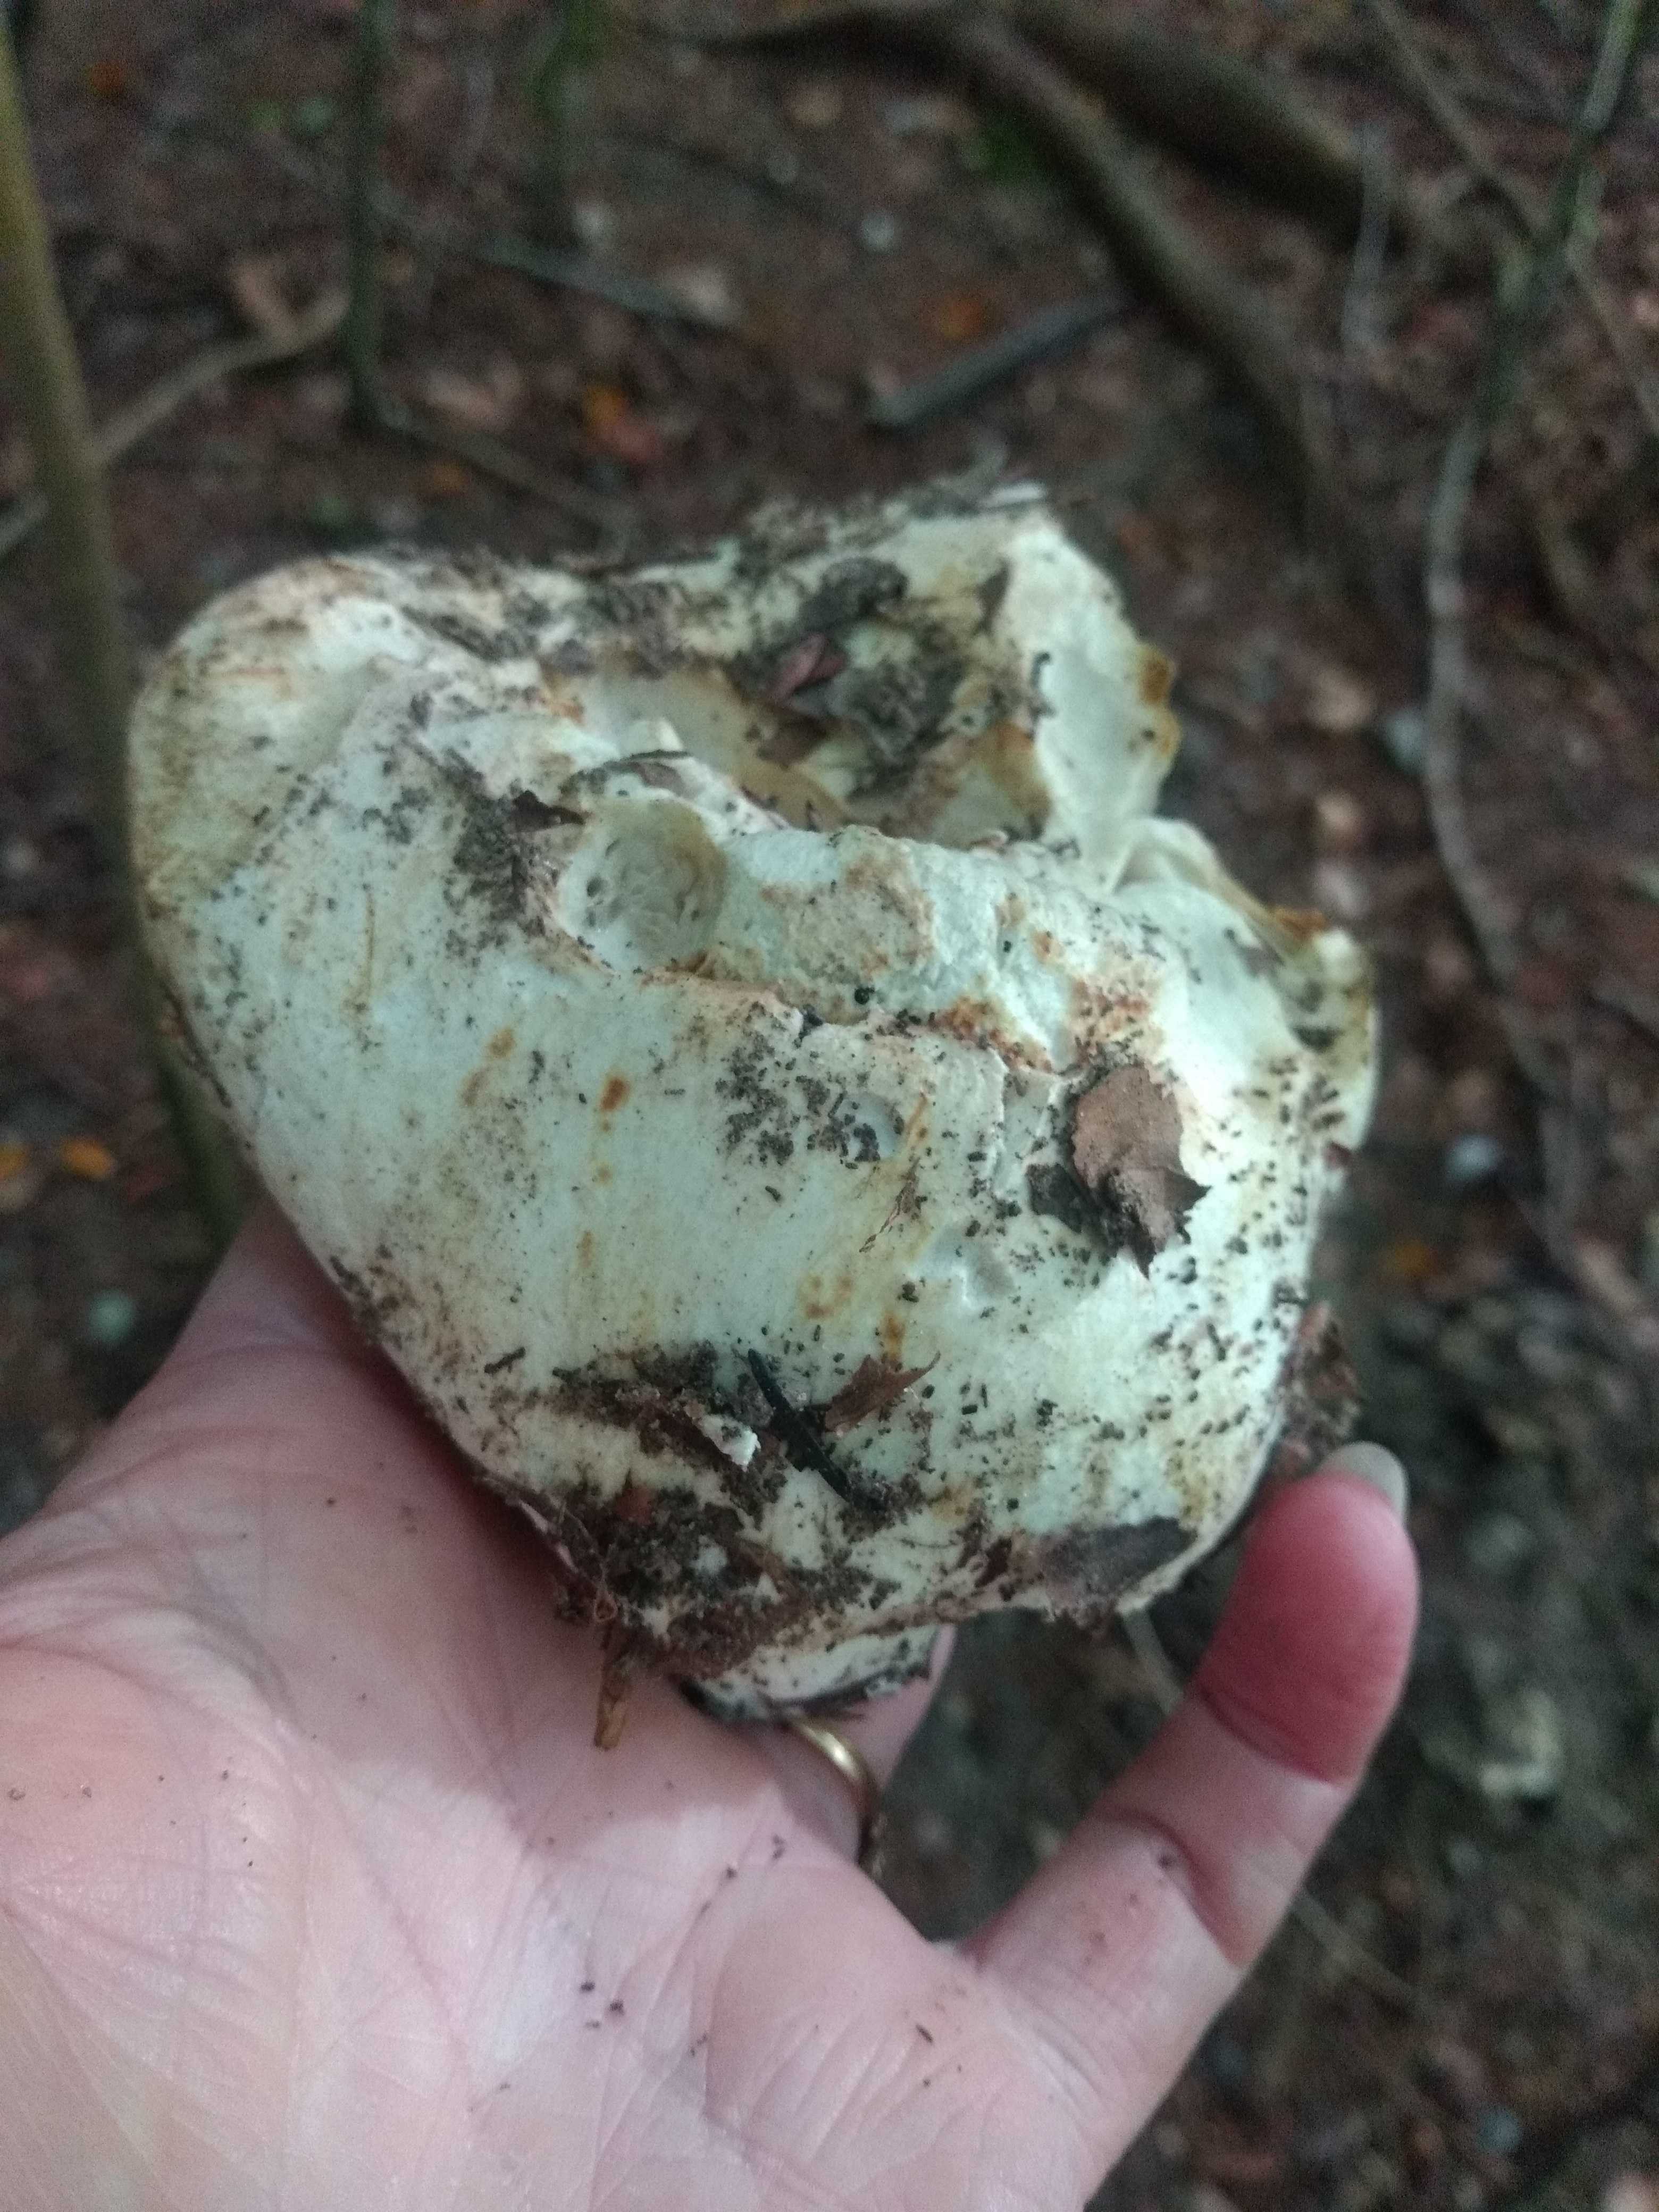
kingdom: Fungi
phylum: Basidiomycota
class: Agaricomycetes
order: Russulales
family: Russulaceae
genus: Russula
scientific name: Russula chloroides
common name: grønhalset tragt-skørhat
